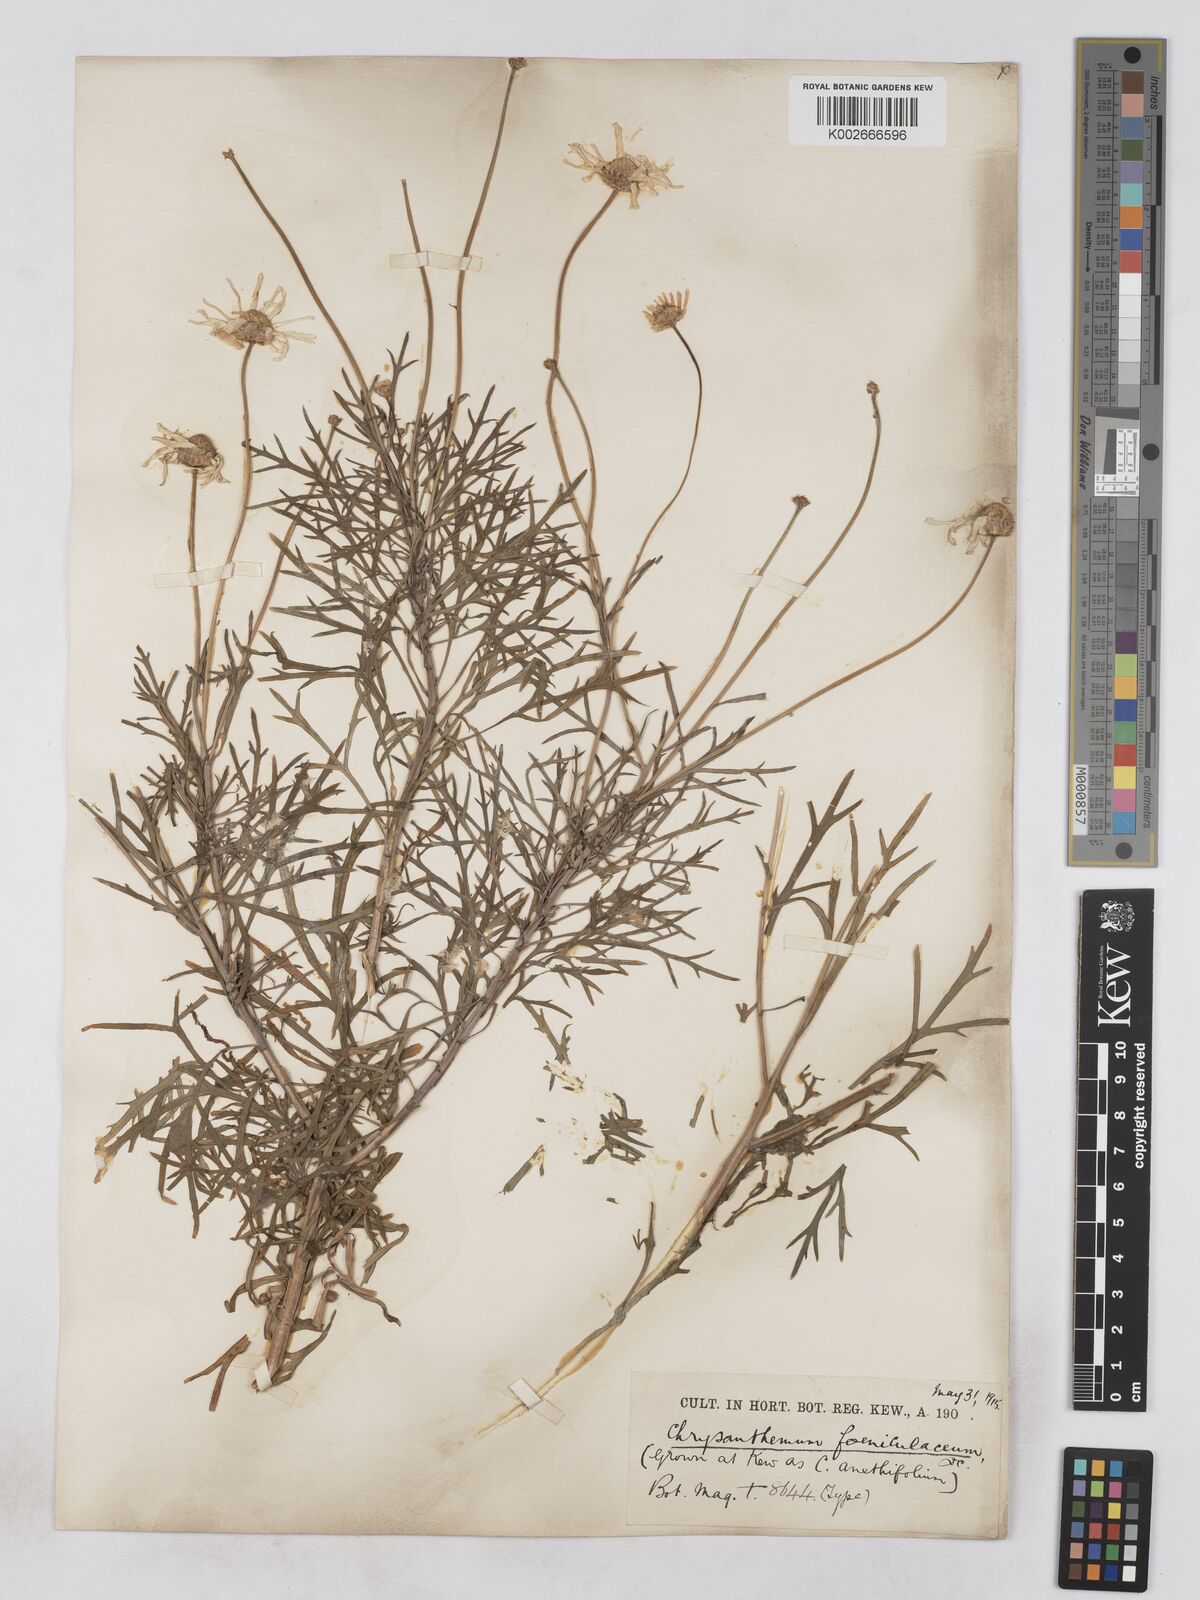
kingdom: Plantae
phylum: Tracheophyta
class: Magnoliopsida
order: Asterales
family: Asteraceae
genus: Argyranthemum
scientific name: Argyranthemum foeniculaceum
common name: Canary island marguerite
